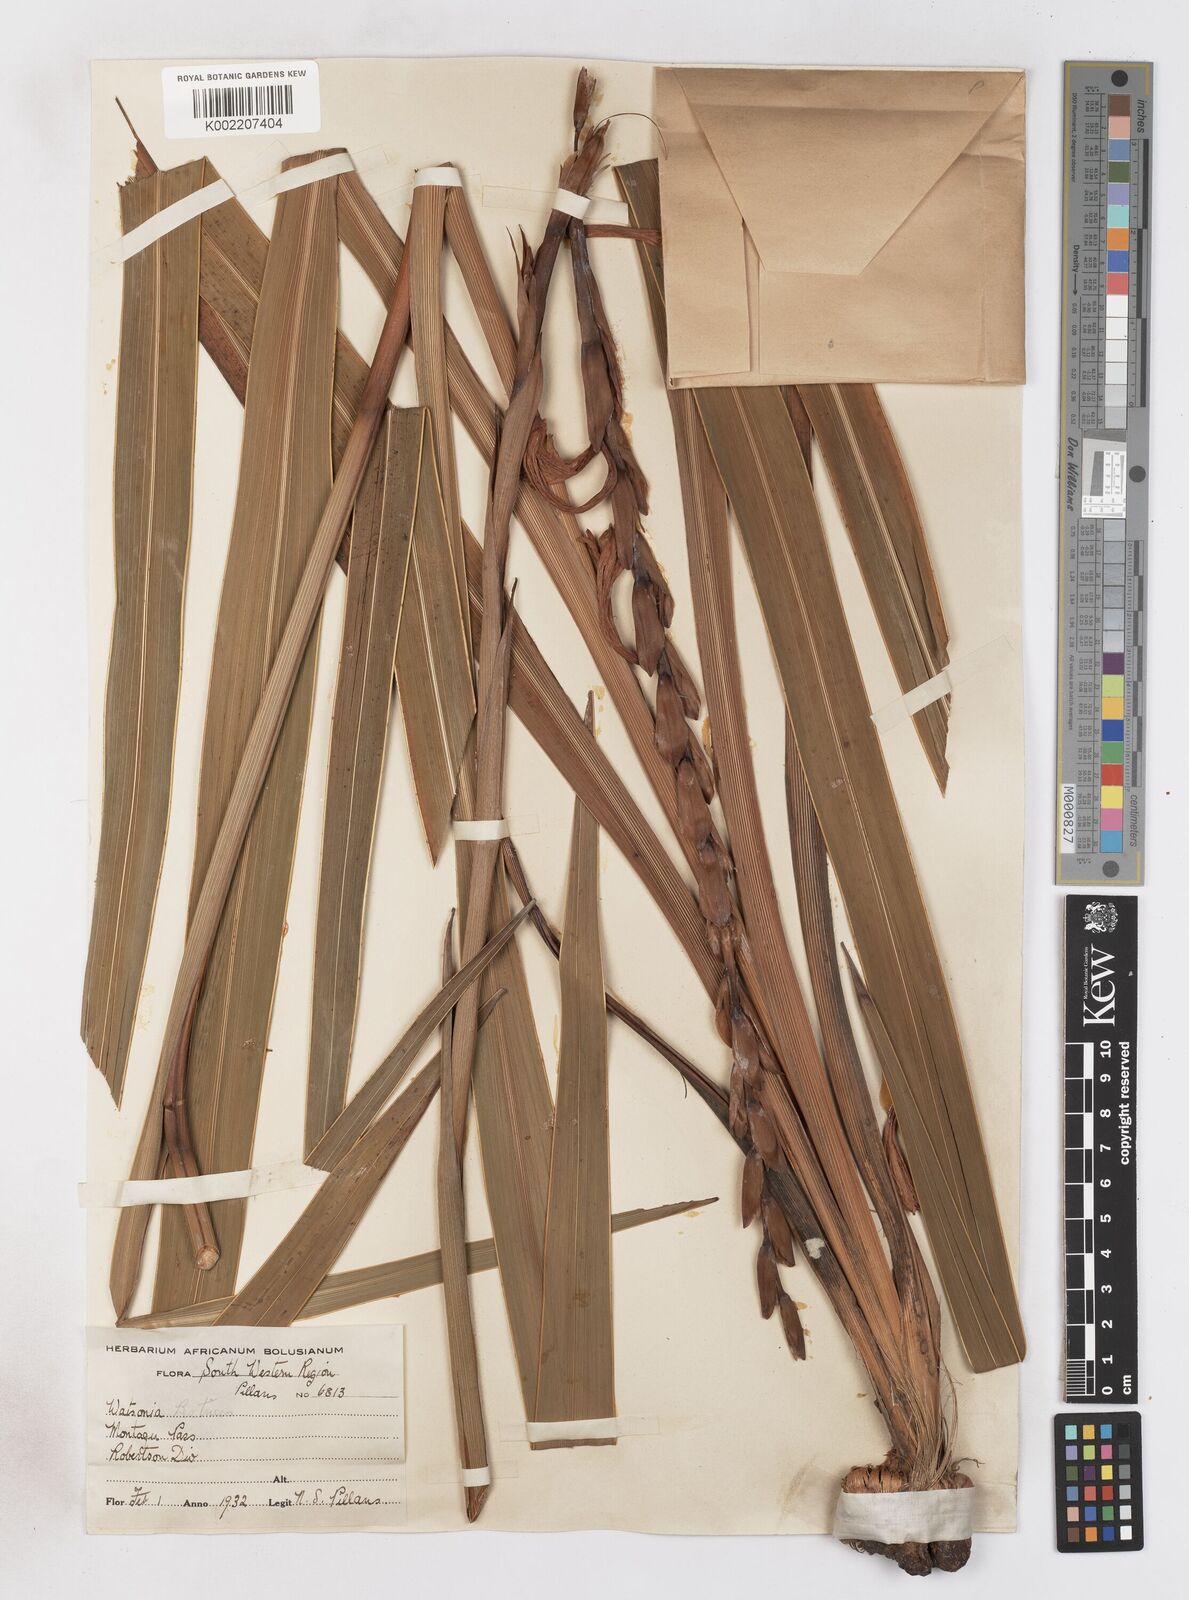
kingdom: Plantae
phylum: Tracheophyta
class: Liliopsida
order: Asparagales
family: Iridaceae
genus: Watsonia
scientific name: Watsonia pillansii
